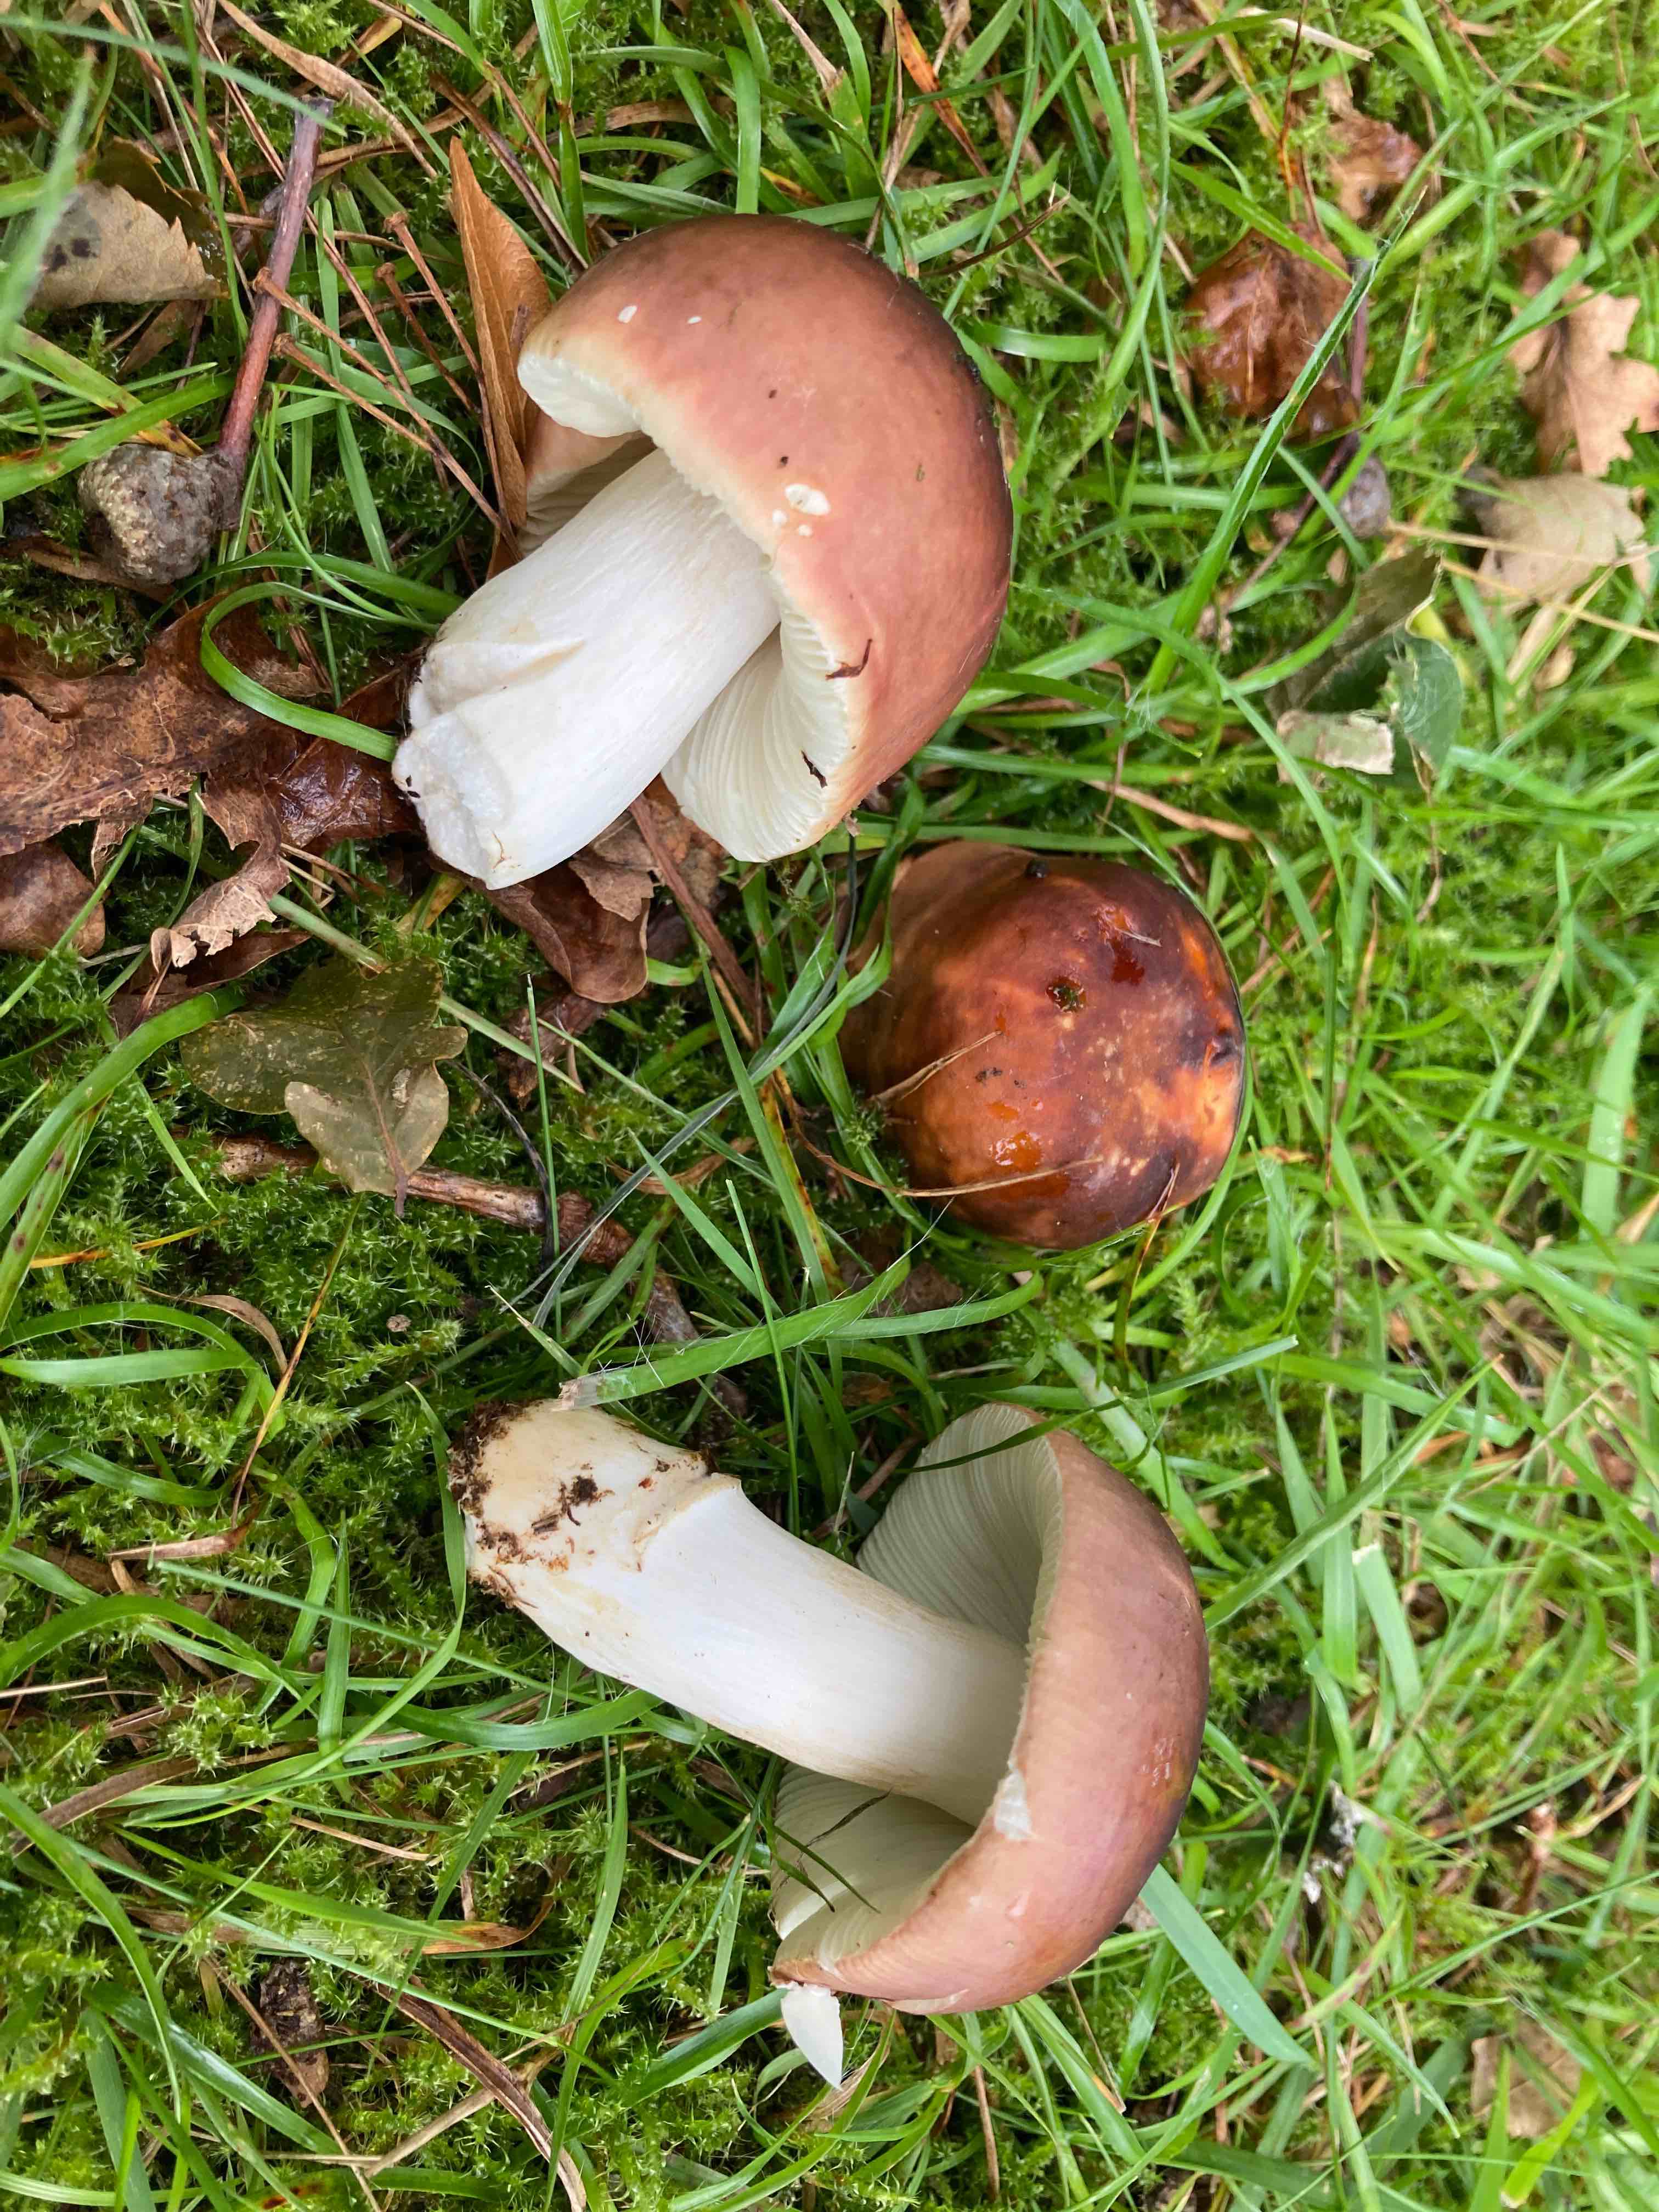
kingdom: Fungi
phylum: Basidiomycota
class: Agaricomycetes
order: Russulales
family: Russulaceae
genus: Russula
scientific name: Russula graveolens
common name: bugtet skørhat
